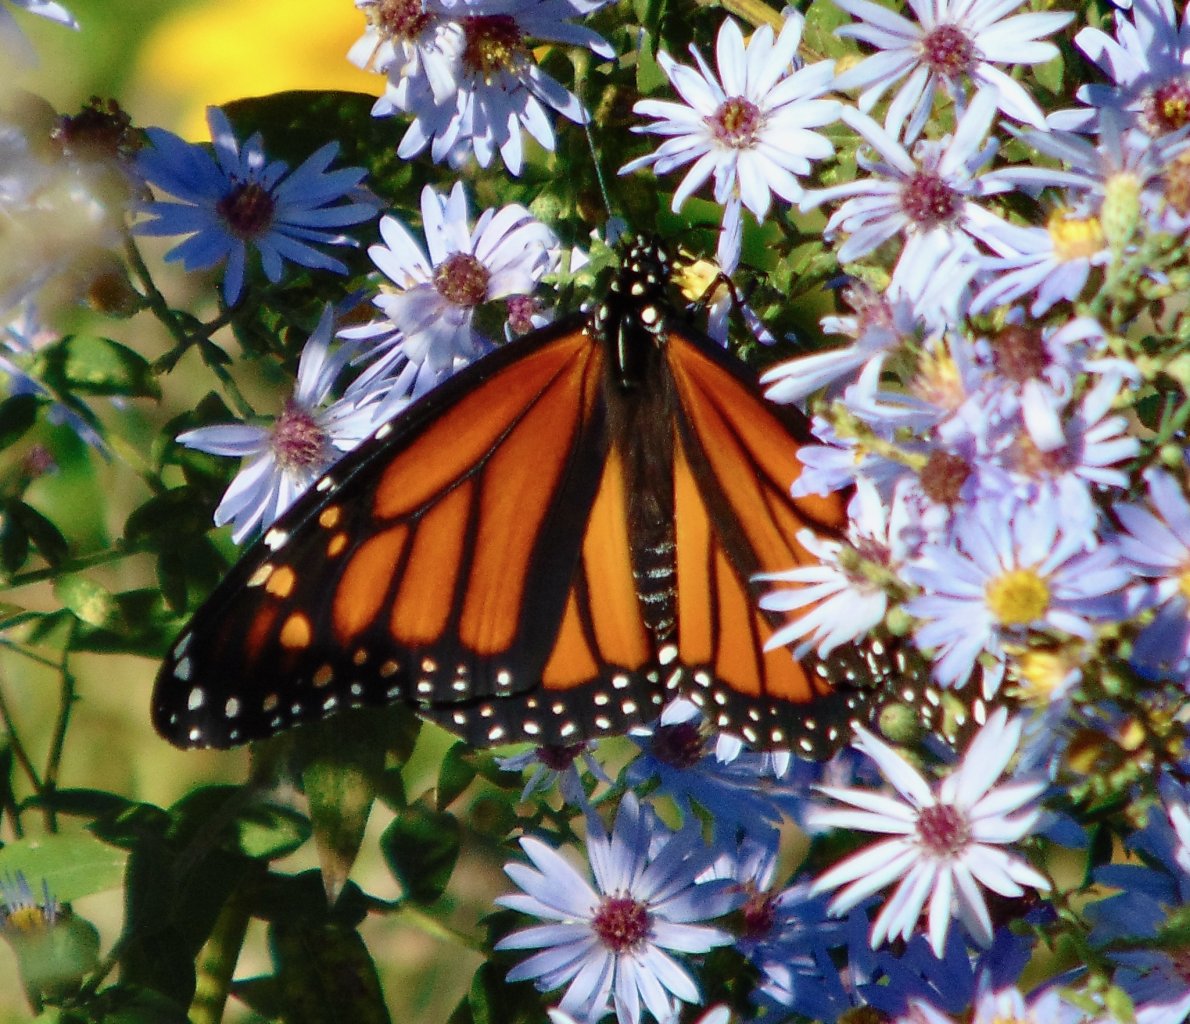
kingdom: Animalia
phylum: Arthropoda
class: Insecta
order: Lepidoptera
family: Nymphalidae
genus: Danaus
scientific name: Danaus plexippus
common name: Monarch
